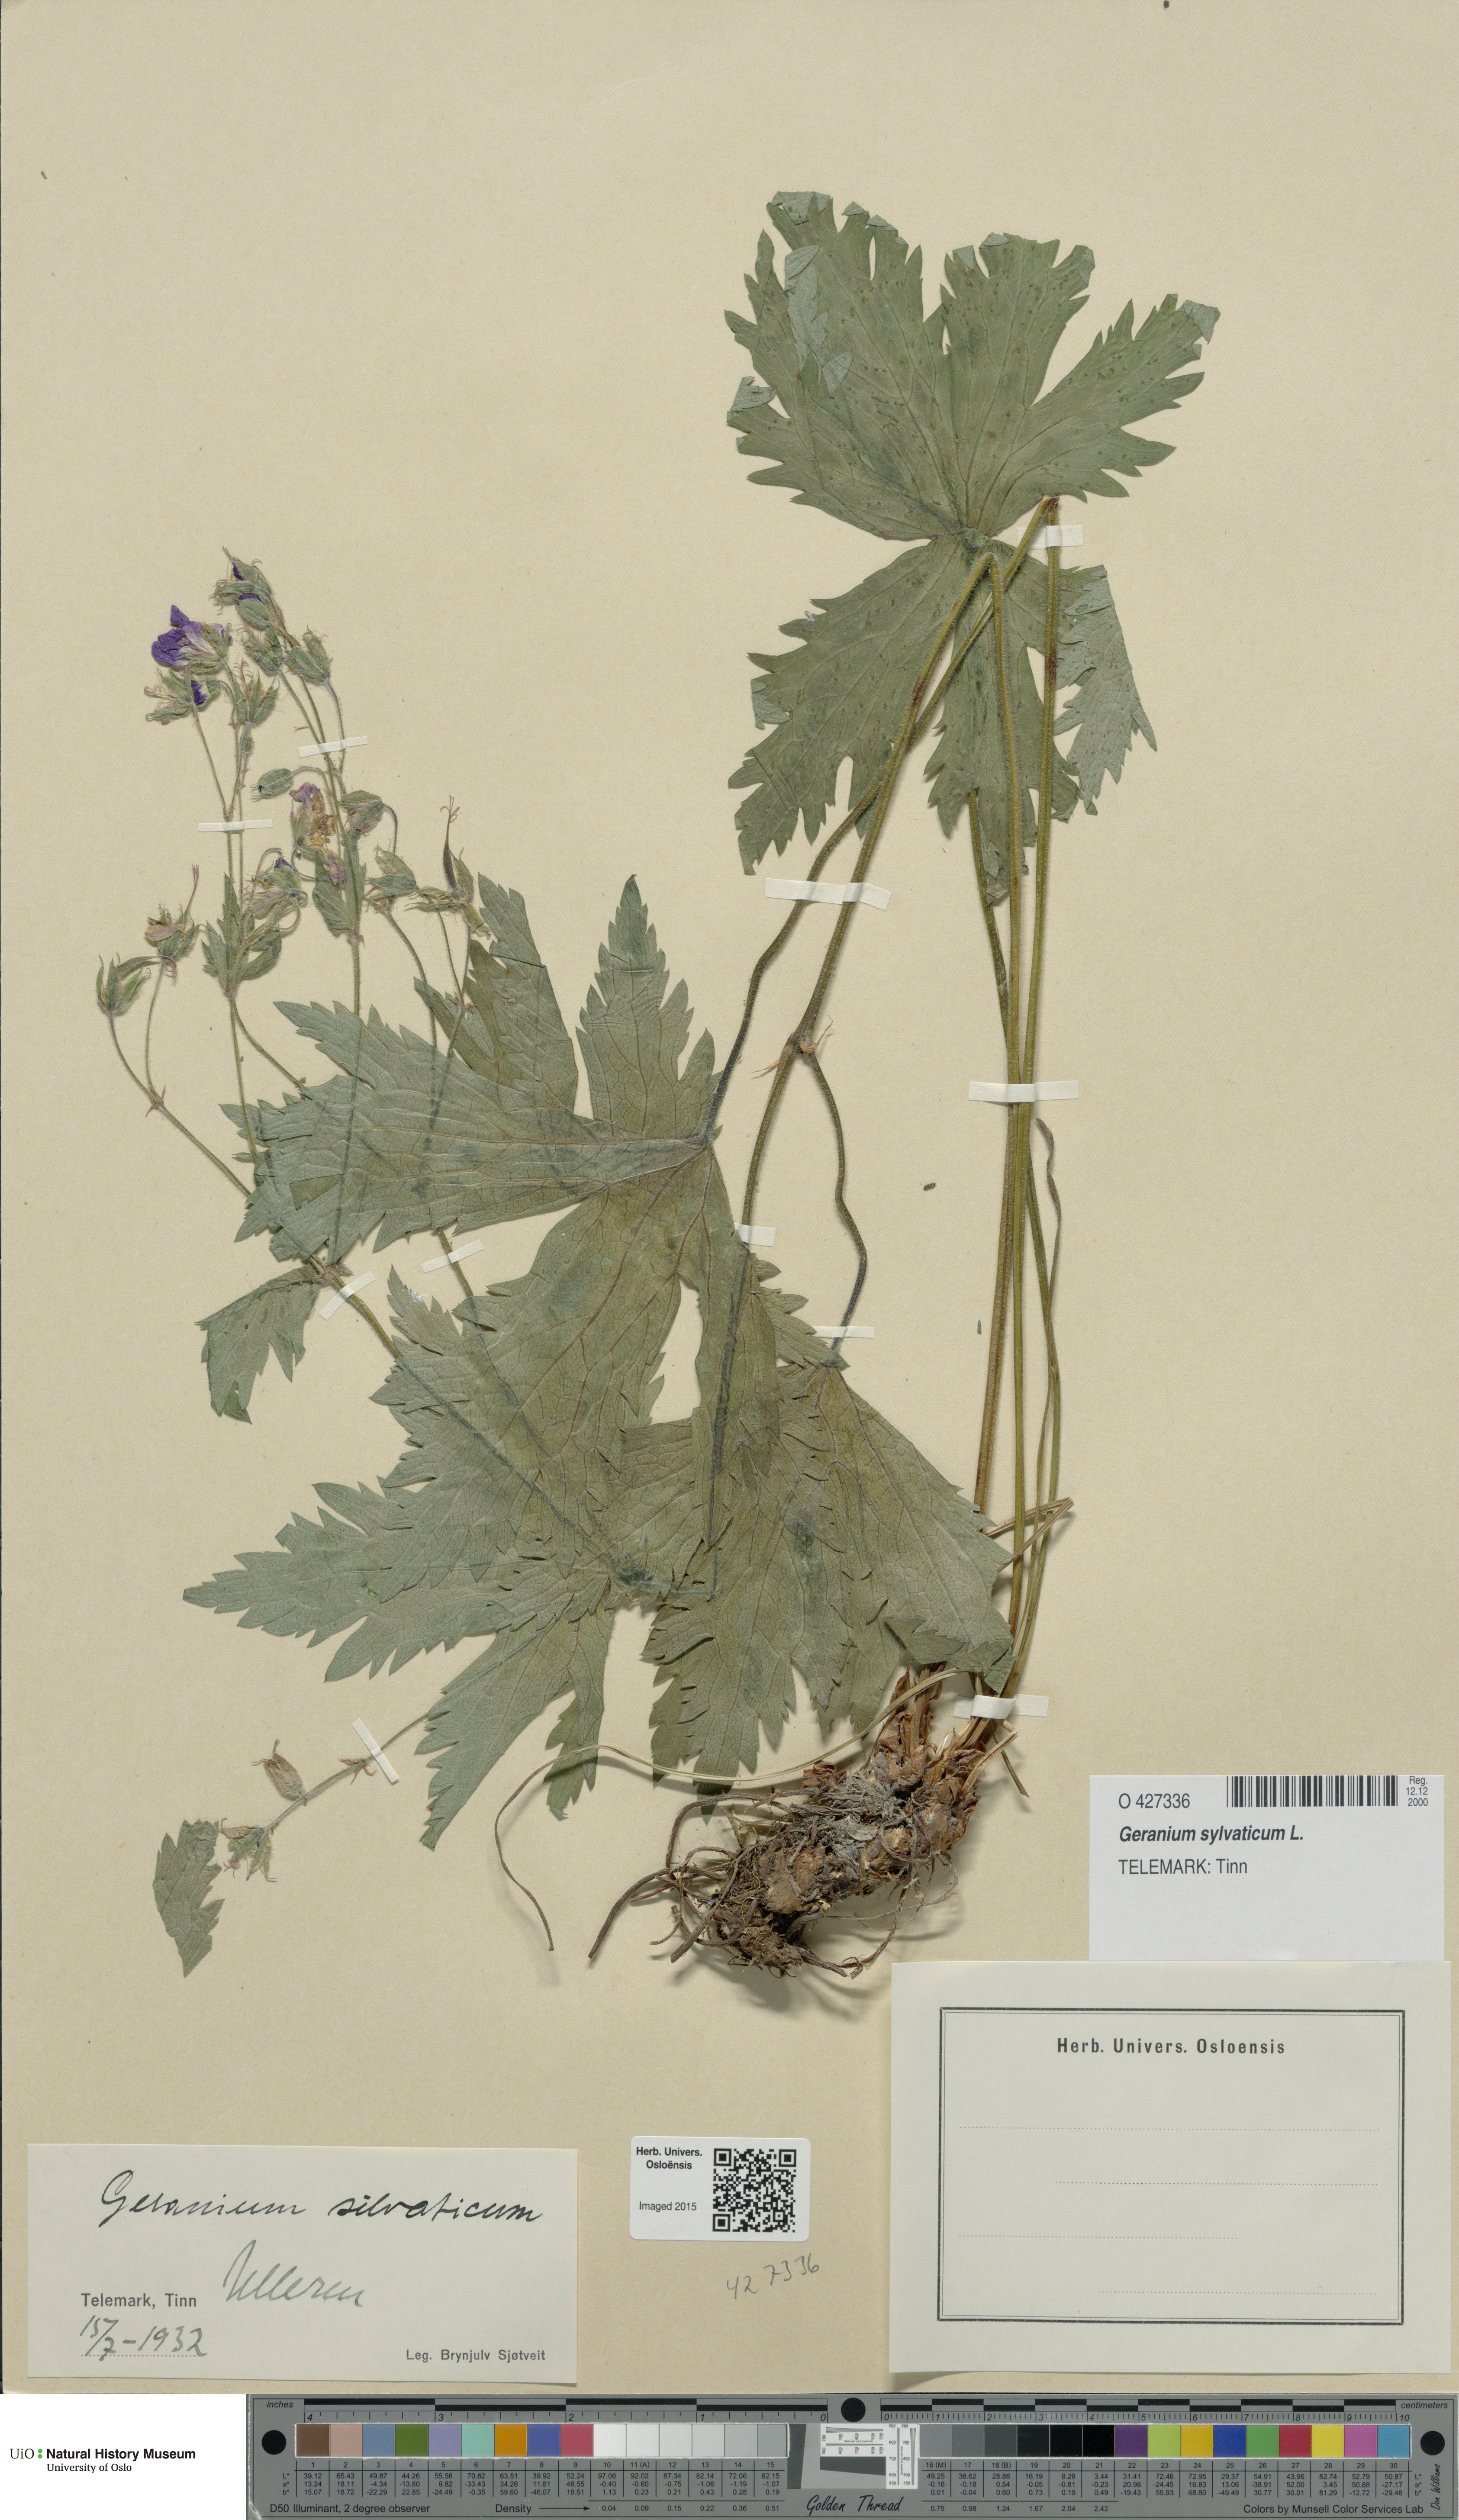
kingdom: Plantae
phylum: Tracheophyta
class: Magnoliopsida
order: Geraniales
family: Geraniaceae
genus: Geranium
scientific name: Geranium sylvaticum
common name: Wood crane's-bill
